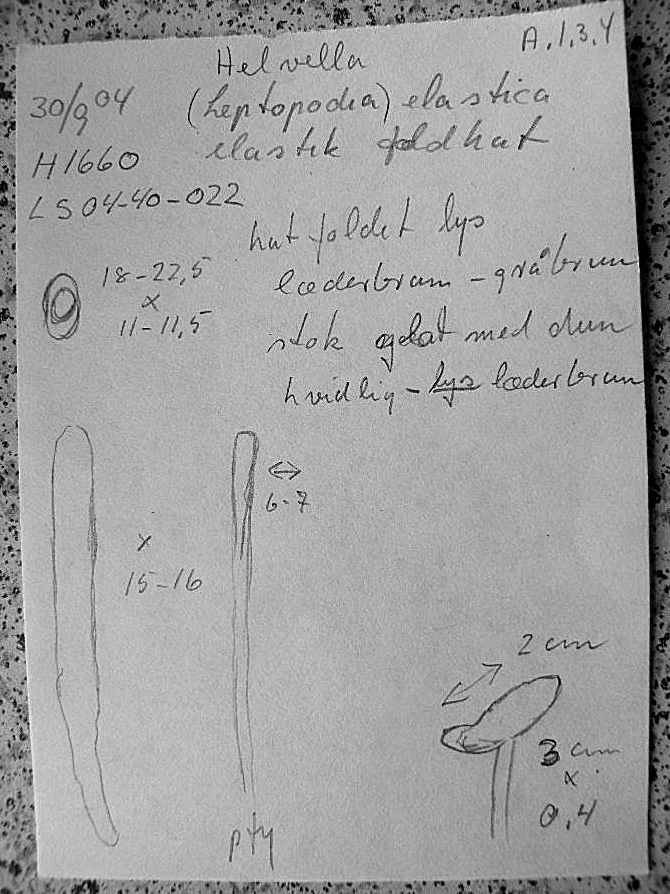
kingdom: Fungi
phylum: Ascomycota
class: Pezizomycetes
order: Pezizales
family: Helvellaceae
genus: Helvella
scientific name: Helvella elastica
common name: elastik-foldhat
